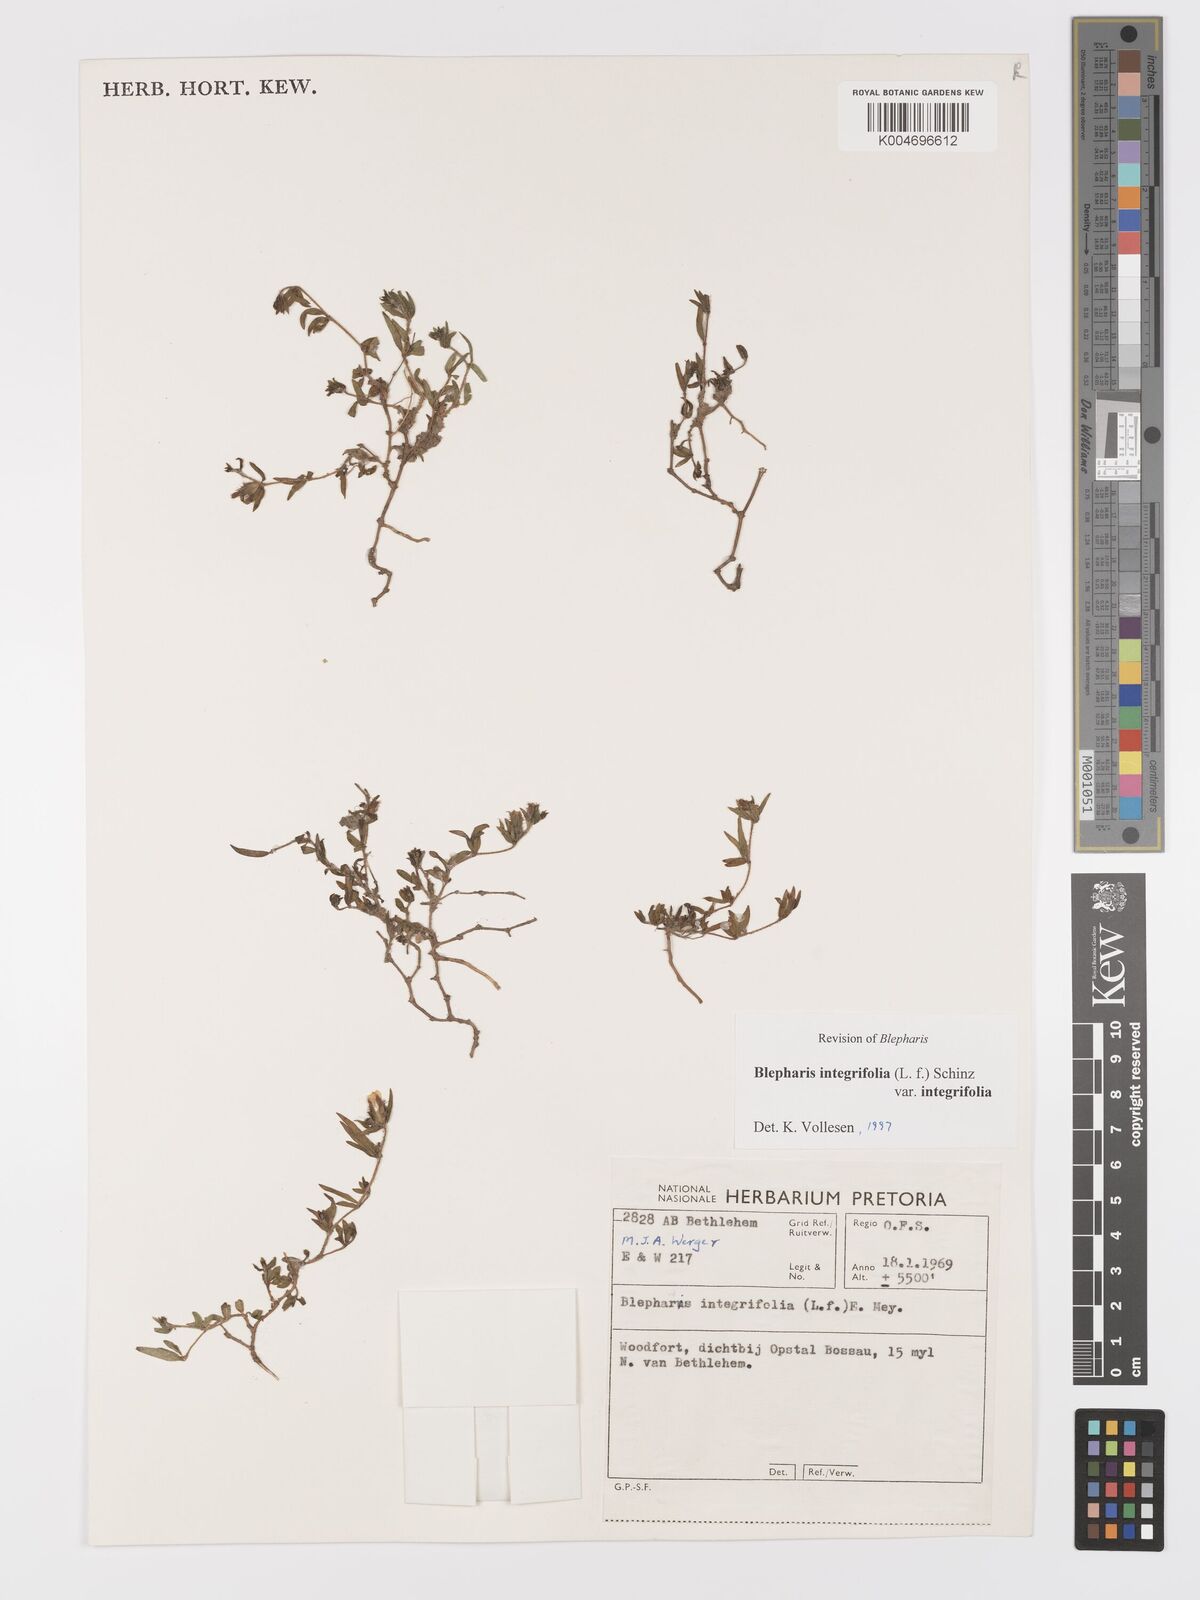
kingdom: Plantae
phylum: Tracheophyta
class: Magnoliopsida
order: Lamiales
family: Acanthaceae
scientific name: Acanthaceae
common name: Acanthaceae
